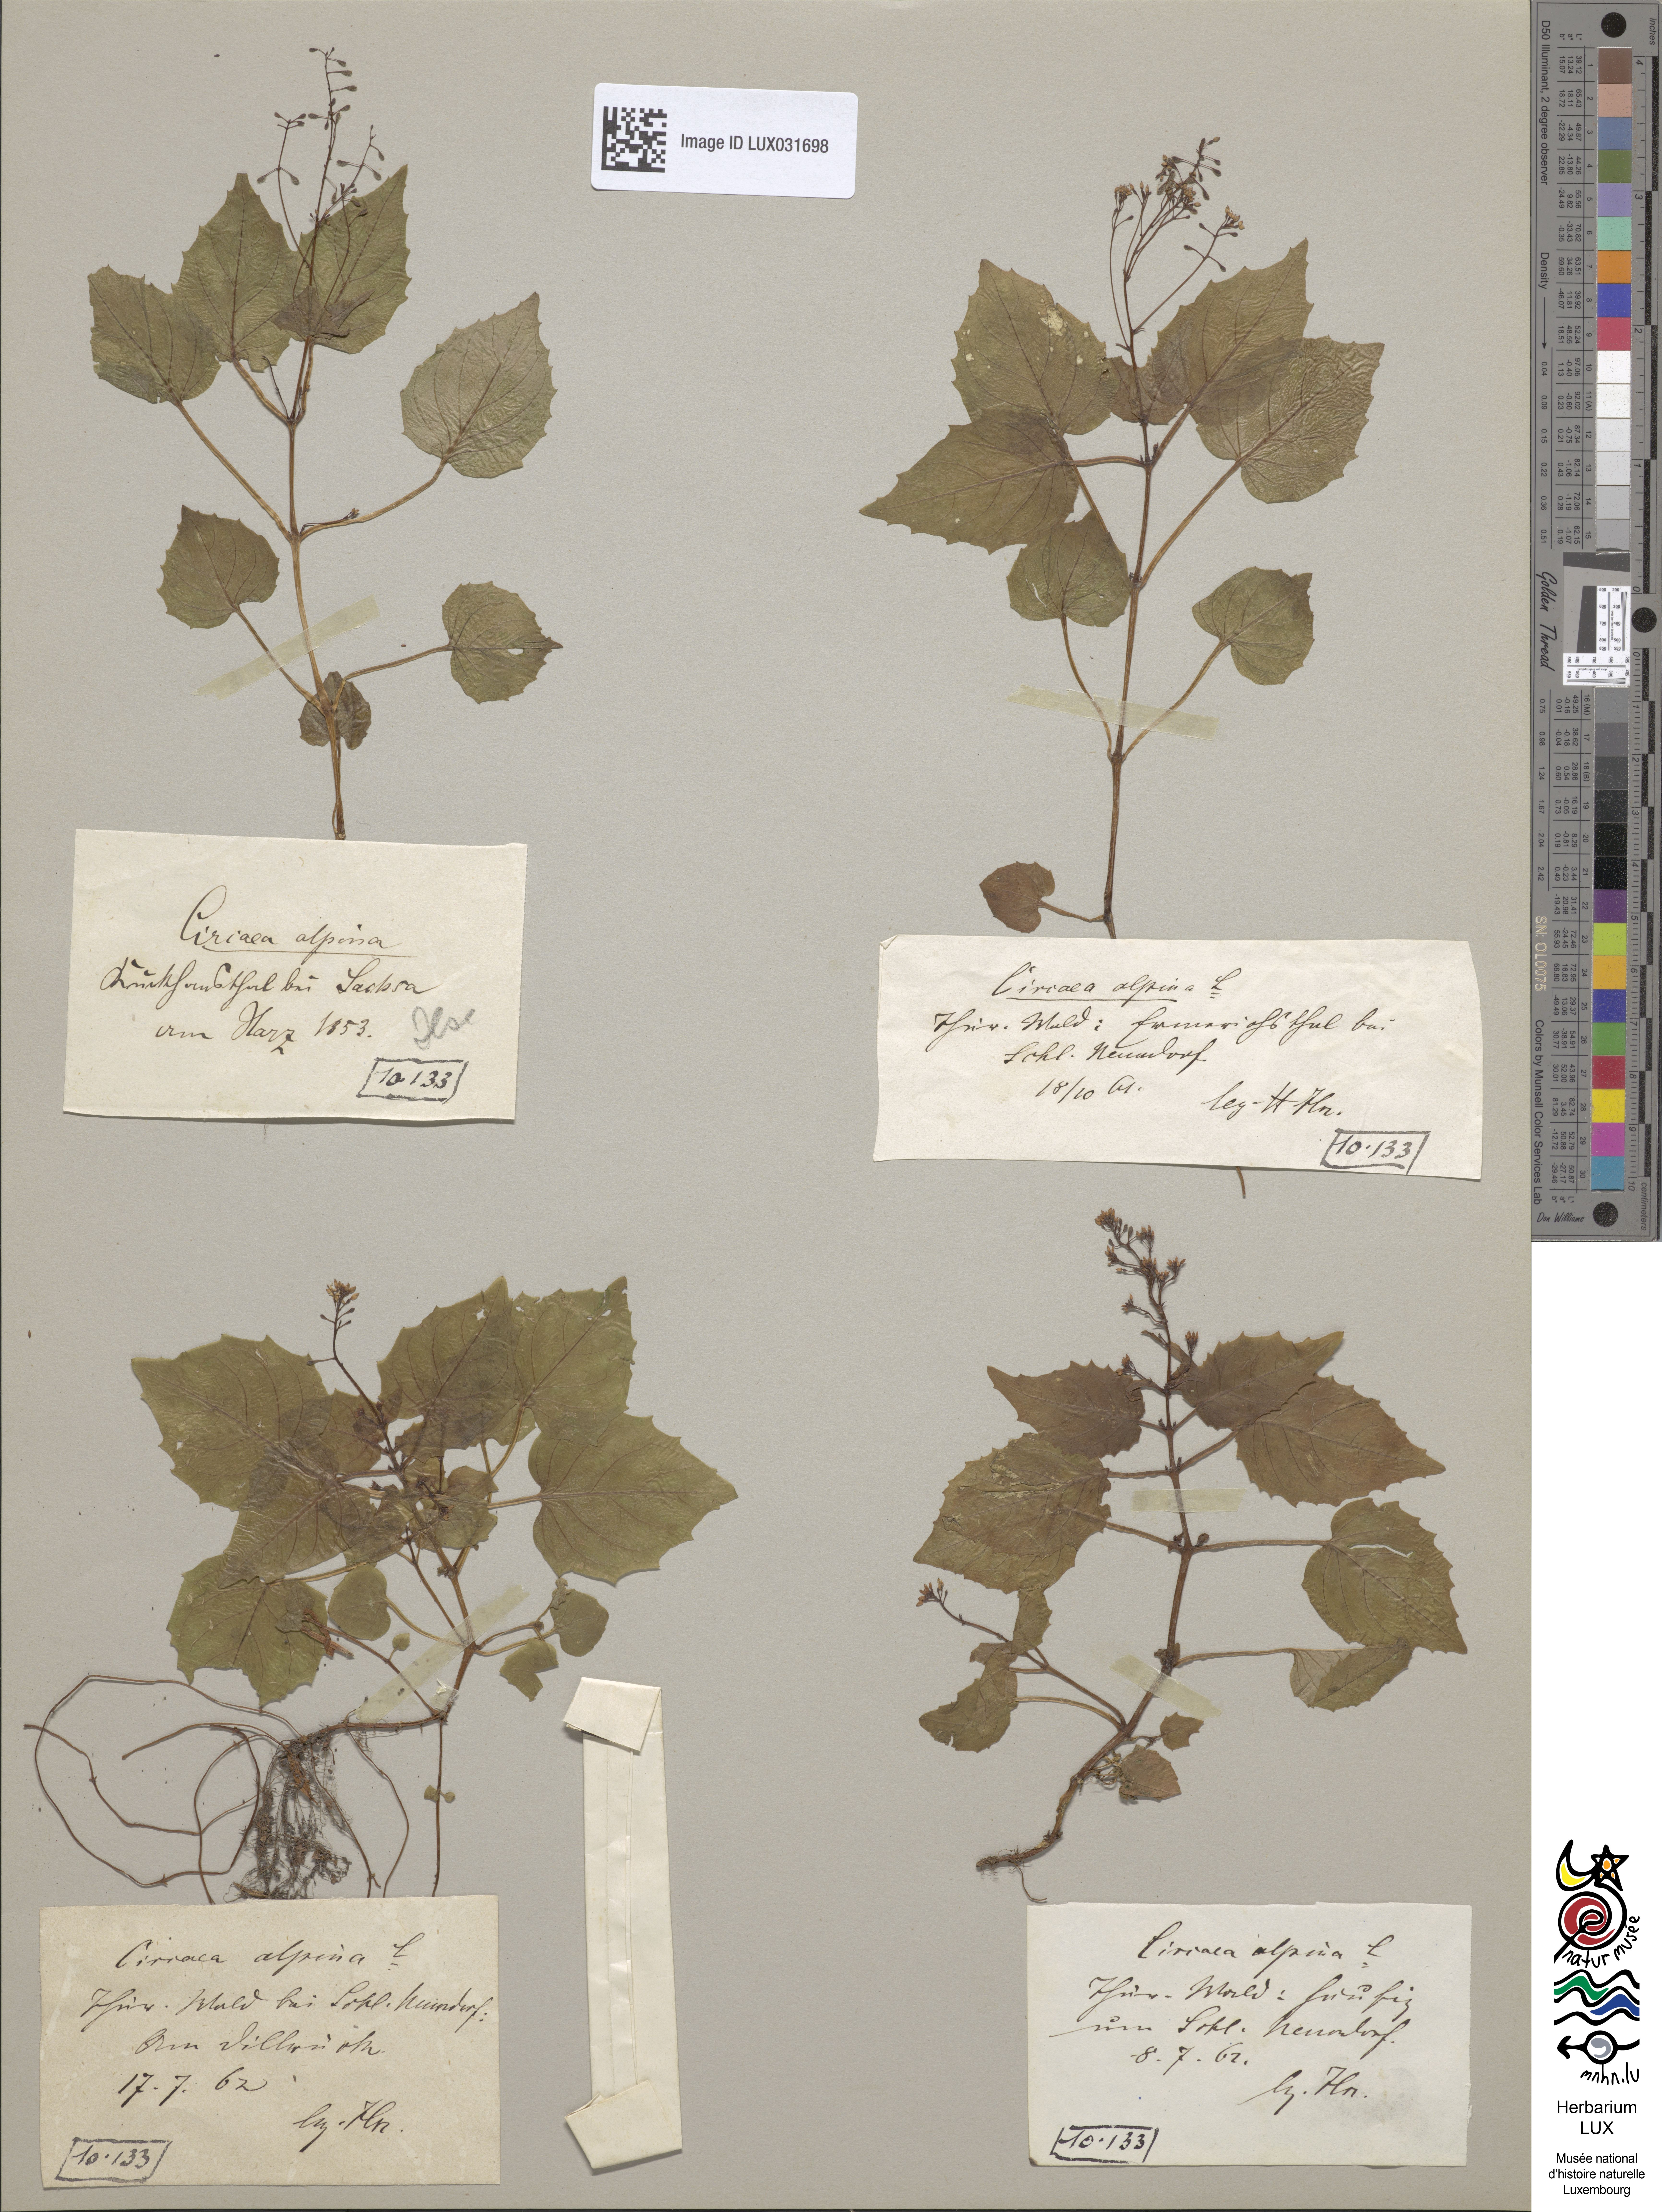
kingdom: Plantae
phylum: Tracheophyta
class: Magnoliopsida
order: Myrtales
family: Onagraceae
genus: Circaea
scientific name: Circaea alpina
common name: Alpine enchanter's-nightshade
